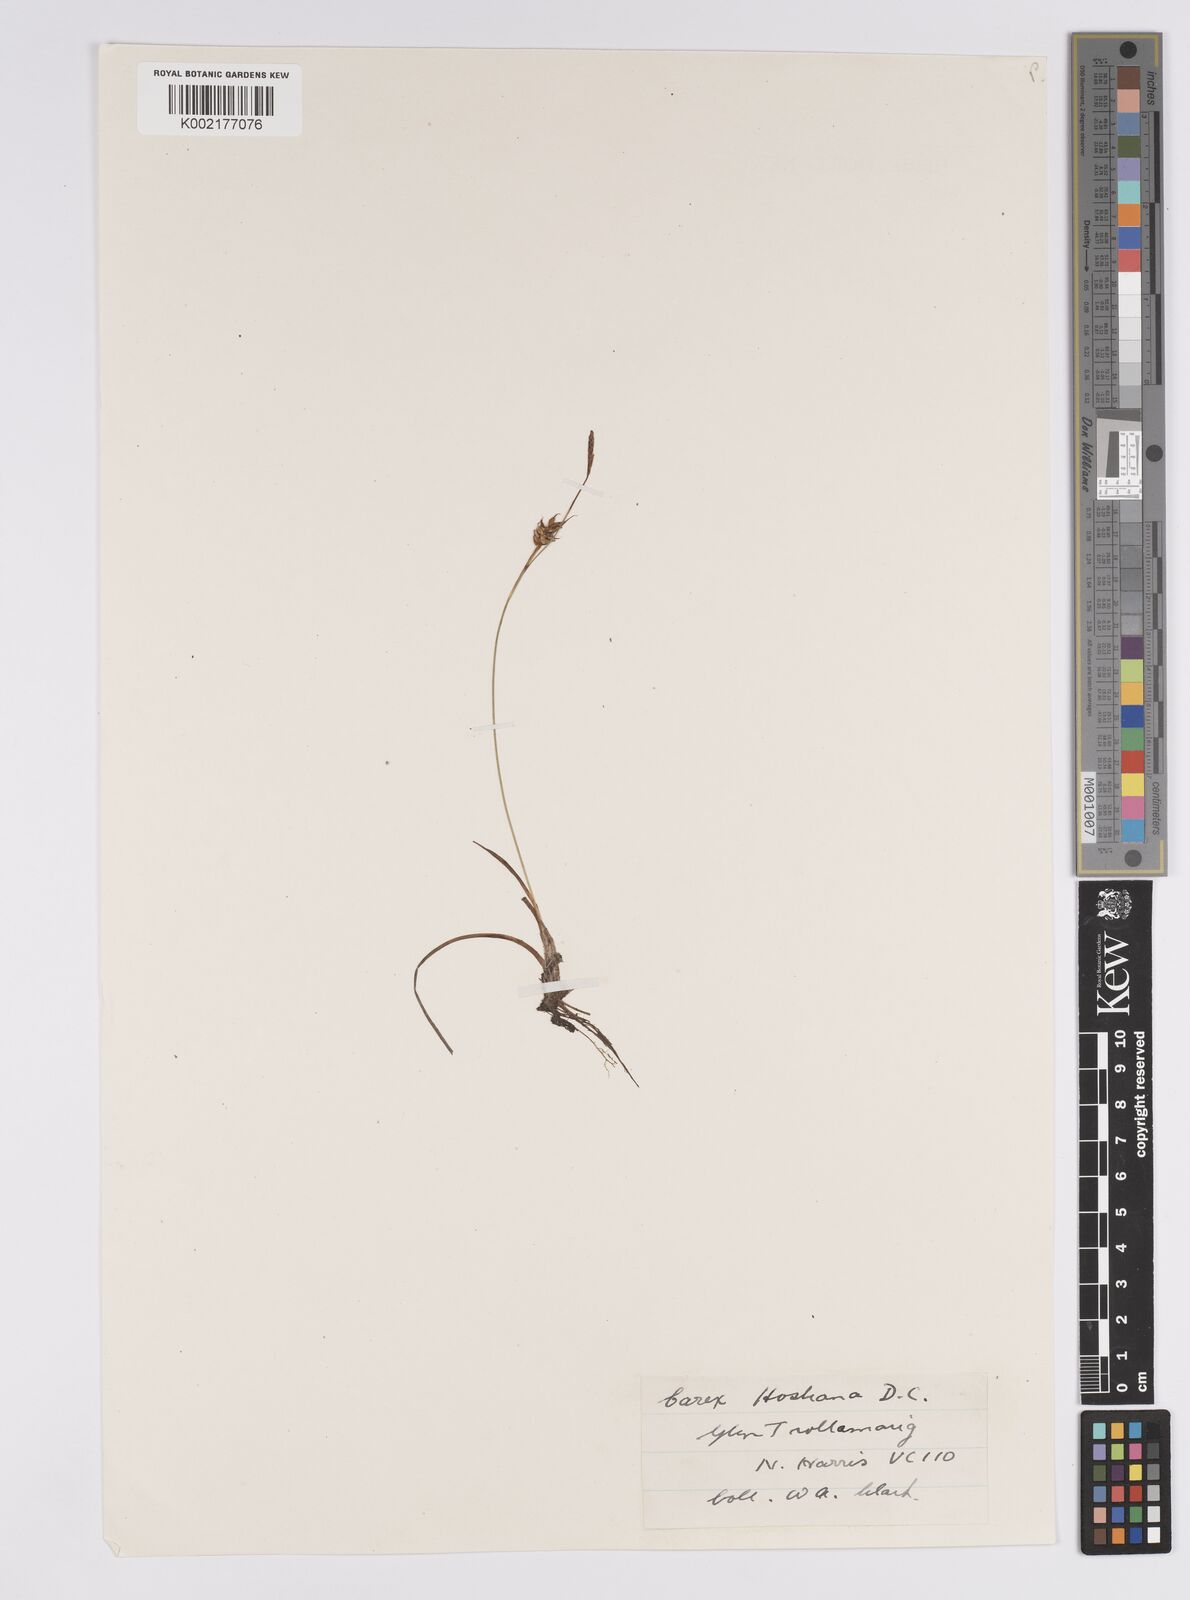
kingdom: Plantae
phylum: Tracheophyta
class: Liliopsida
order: Poales
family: Cyperaceae
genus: Carex
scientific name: Carex hostiana
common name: Tawny sedge
